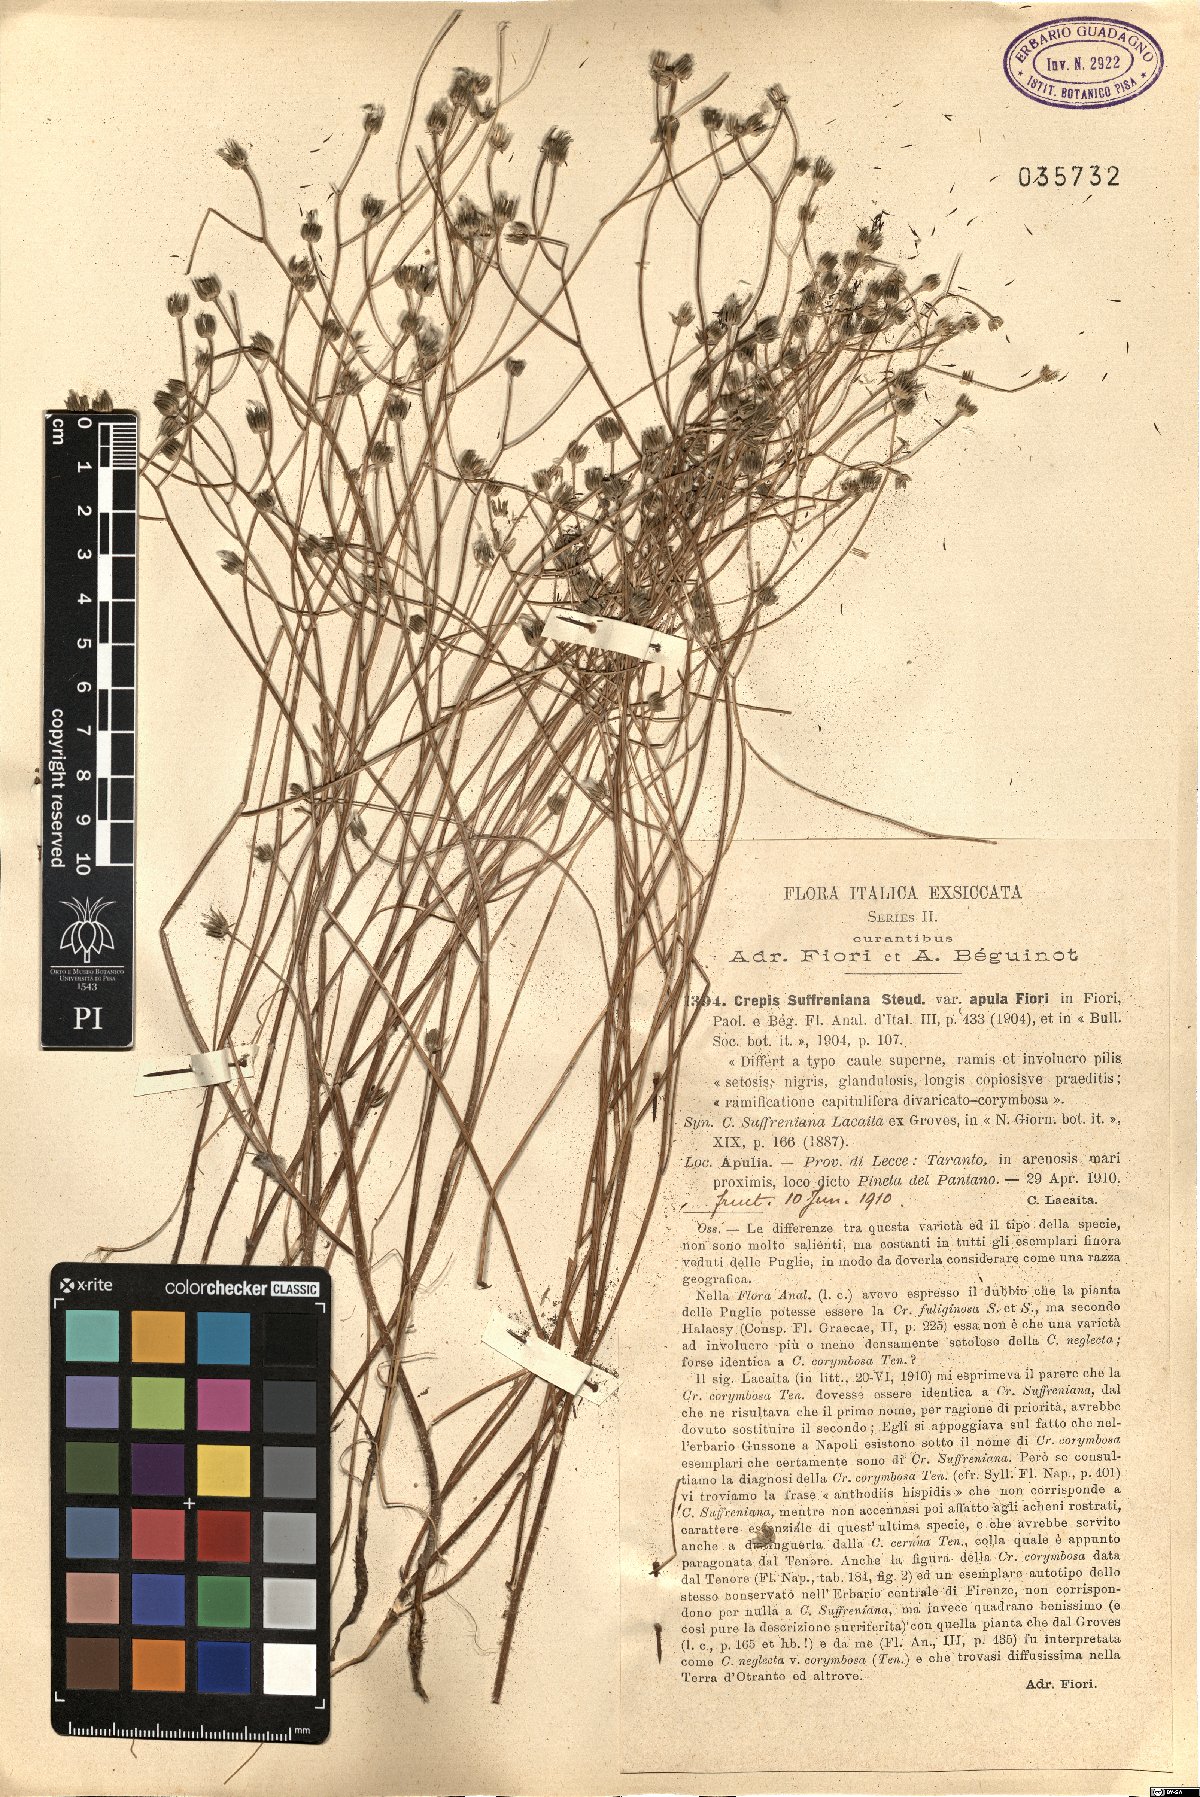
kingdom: Plantae
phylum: Tracheophyta
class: Magnoliopsida
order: Asterales
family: Asteraceae
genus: Crepis
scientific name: Crepis suffreniana
